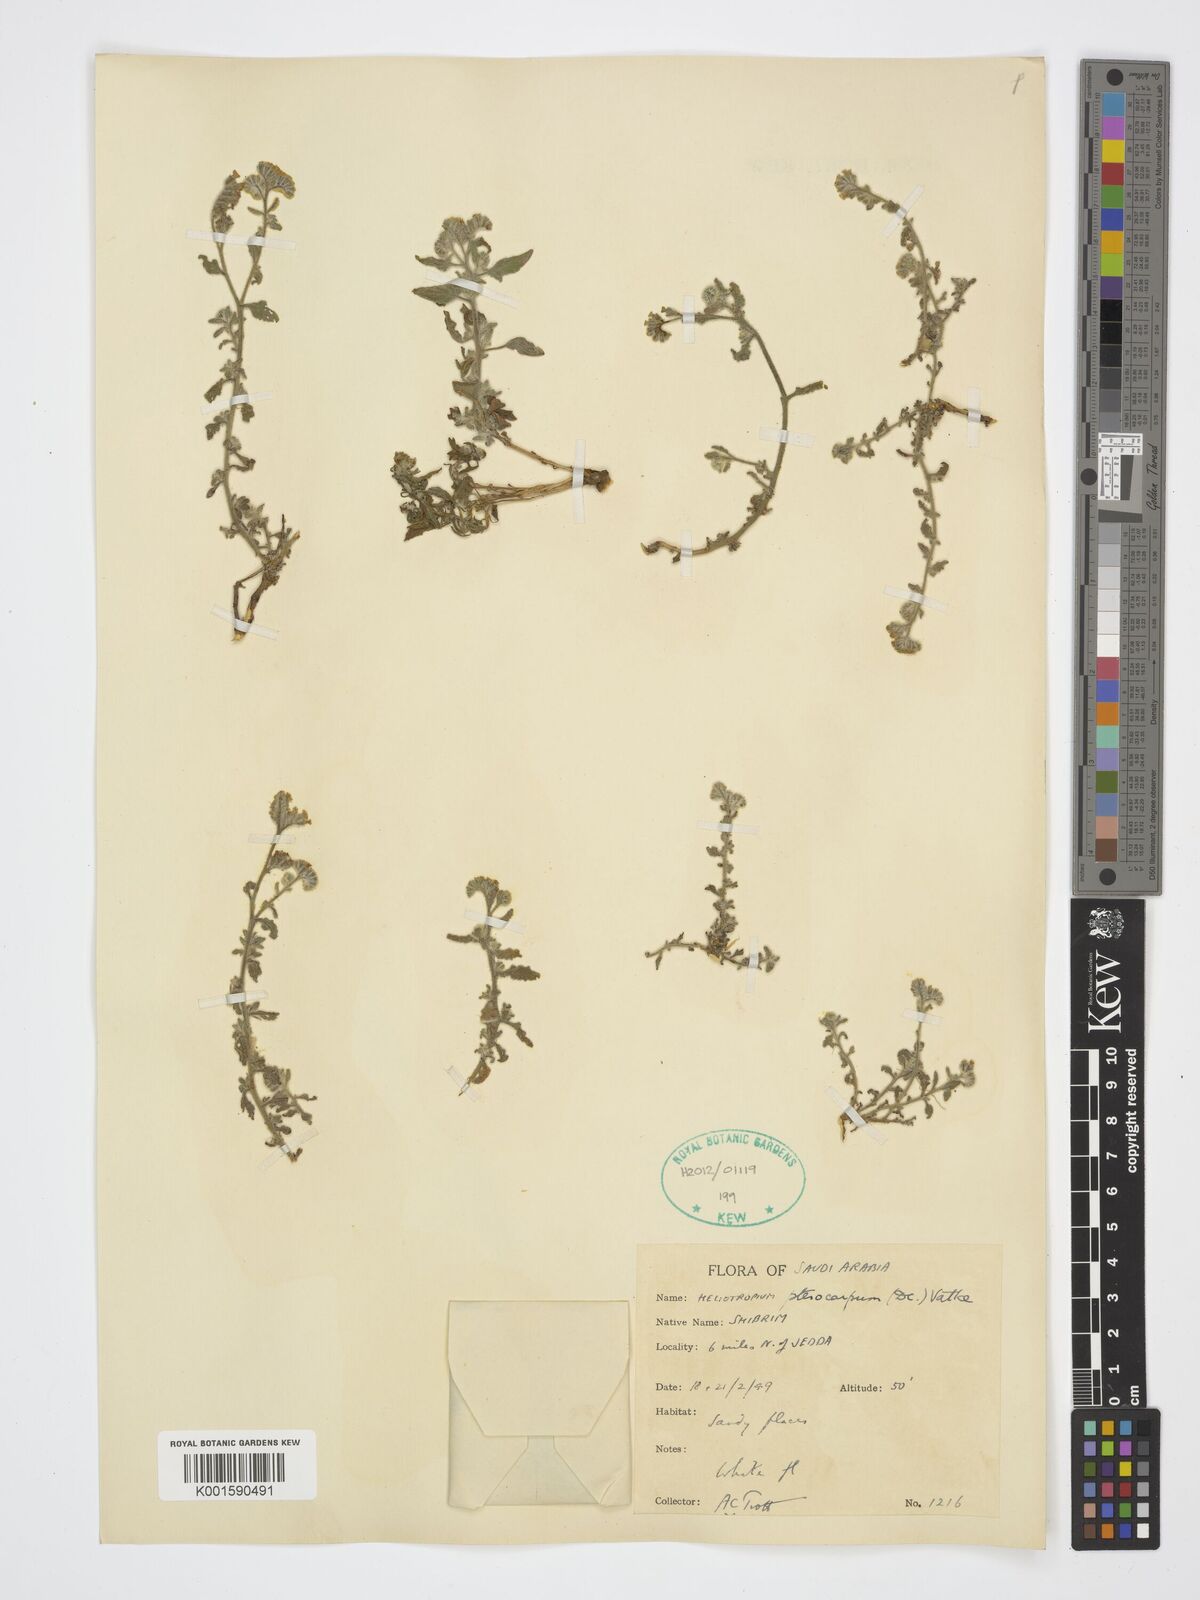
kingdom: Plantae
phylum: Tracheophyta
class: Magnoliopsida
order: Boraginales
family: Heliotropiaceae
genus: Heliotropium
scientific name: Heliotropium pterocarpum
